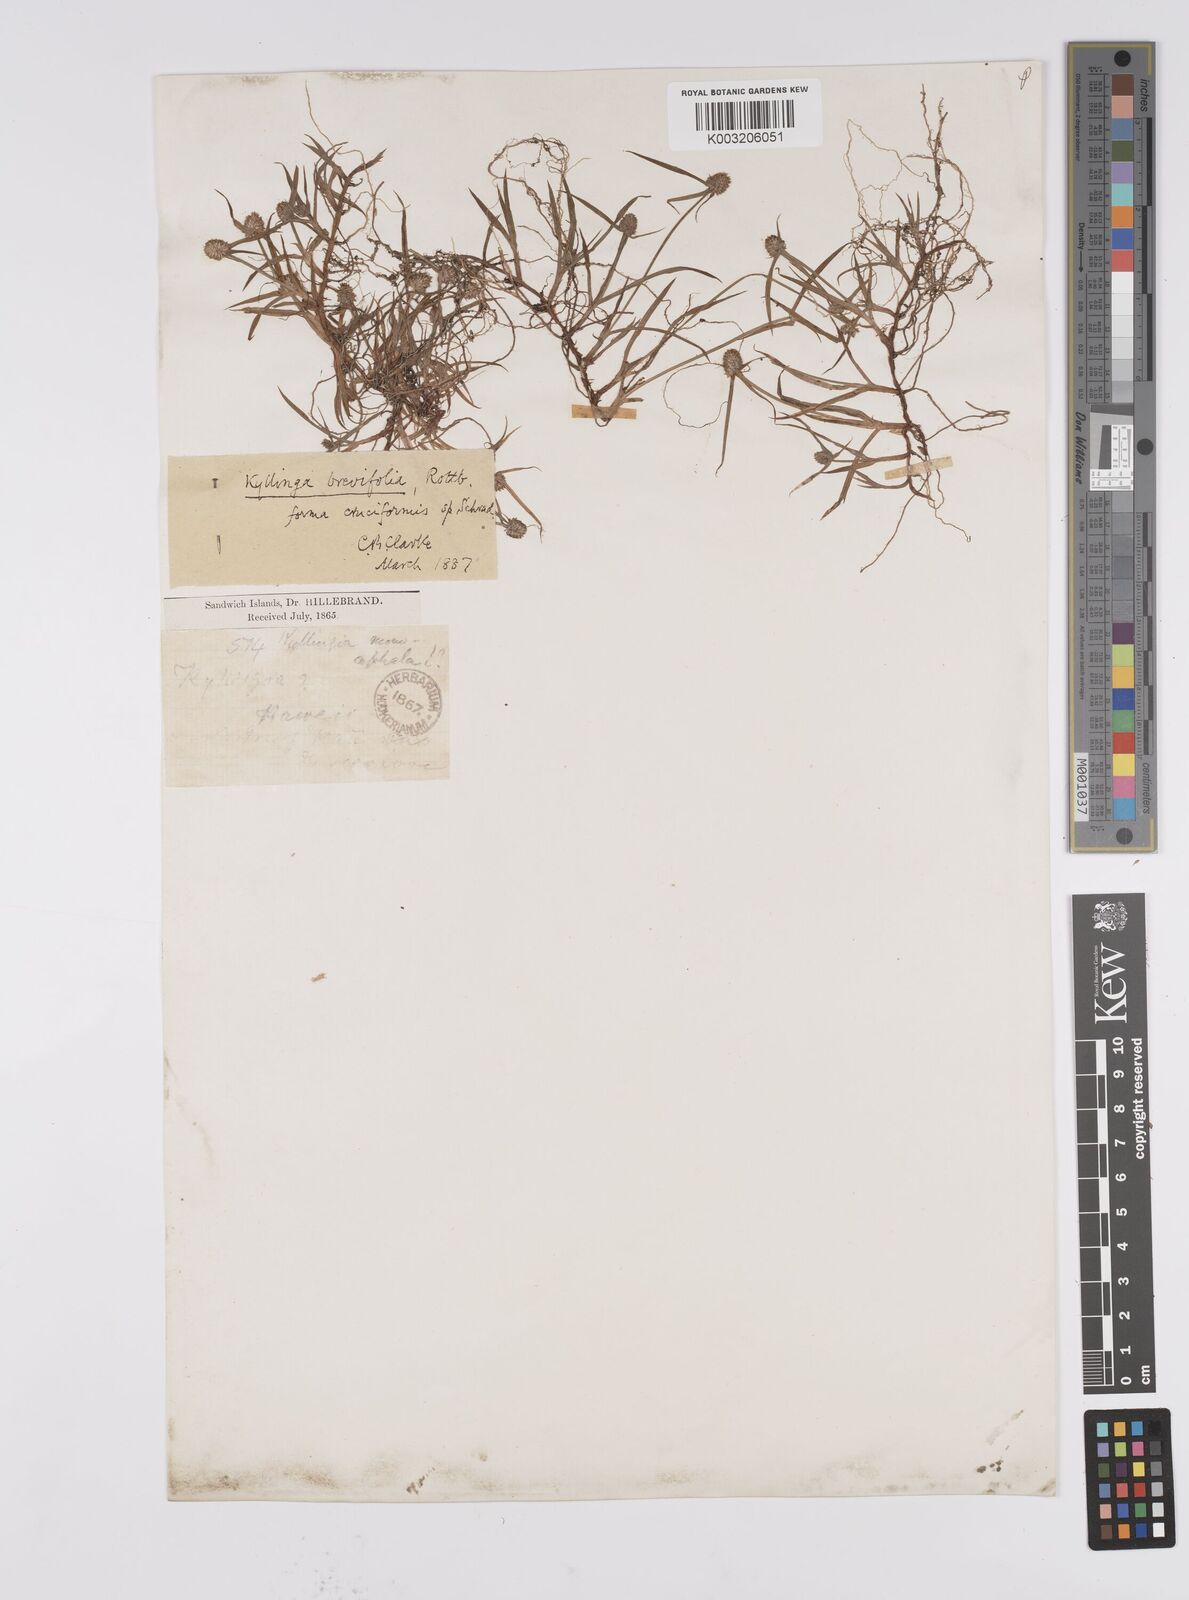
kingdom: Plantae
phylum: Tracheophyta
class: Liliopsida
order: Poales
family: Cyperaceae
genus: Cyperus
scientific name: Cyperus brevifolius
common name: Globe kyllinga
